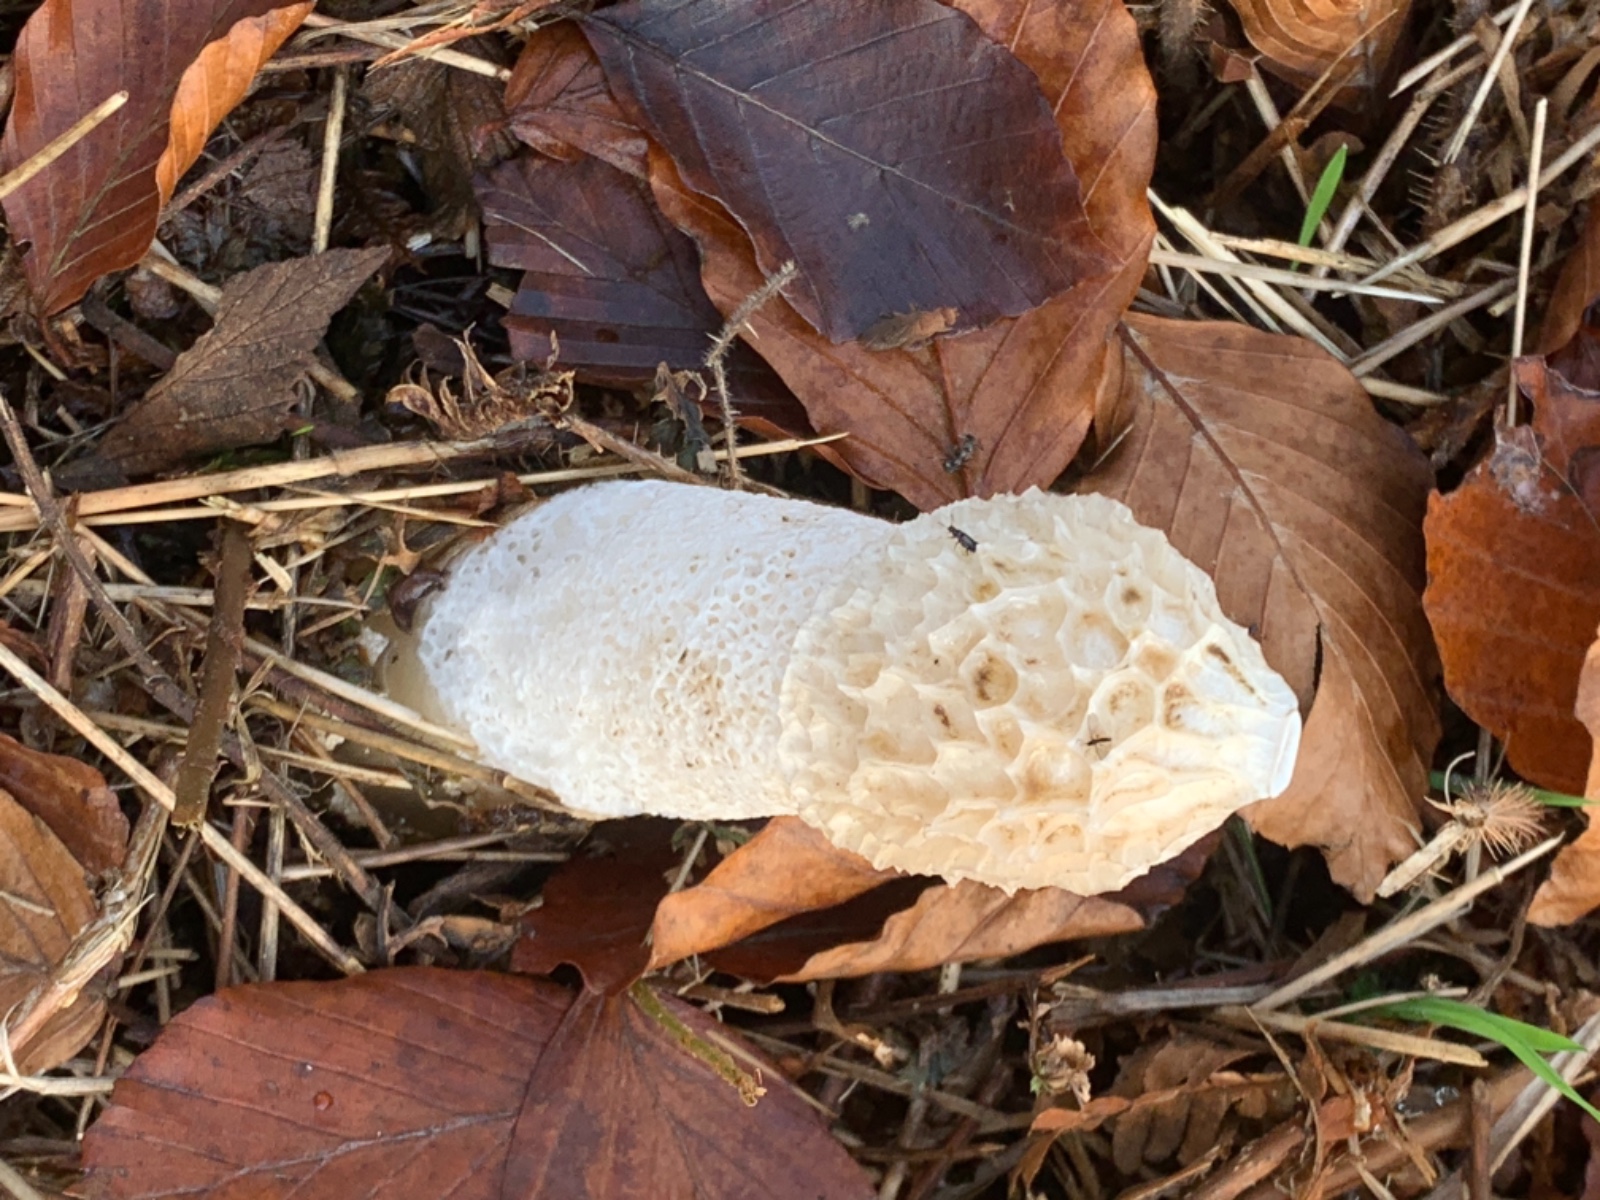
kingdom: Fungi
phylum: Basidiomycota
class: Agaricomycetes
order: Phallales
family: Phallaceae
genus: Phallus
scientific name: Phallus impudicus
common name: almindelig stinksvamp
